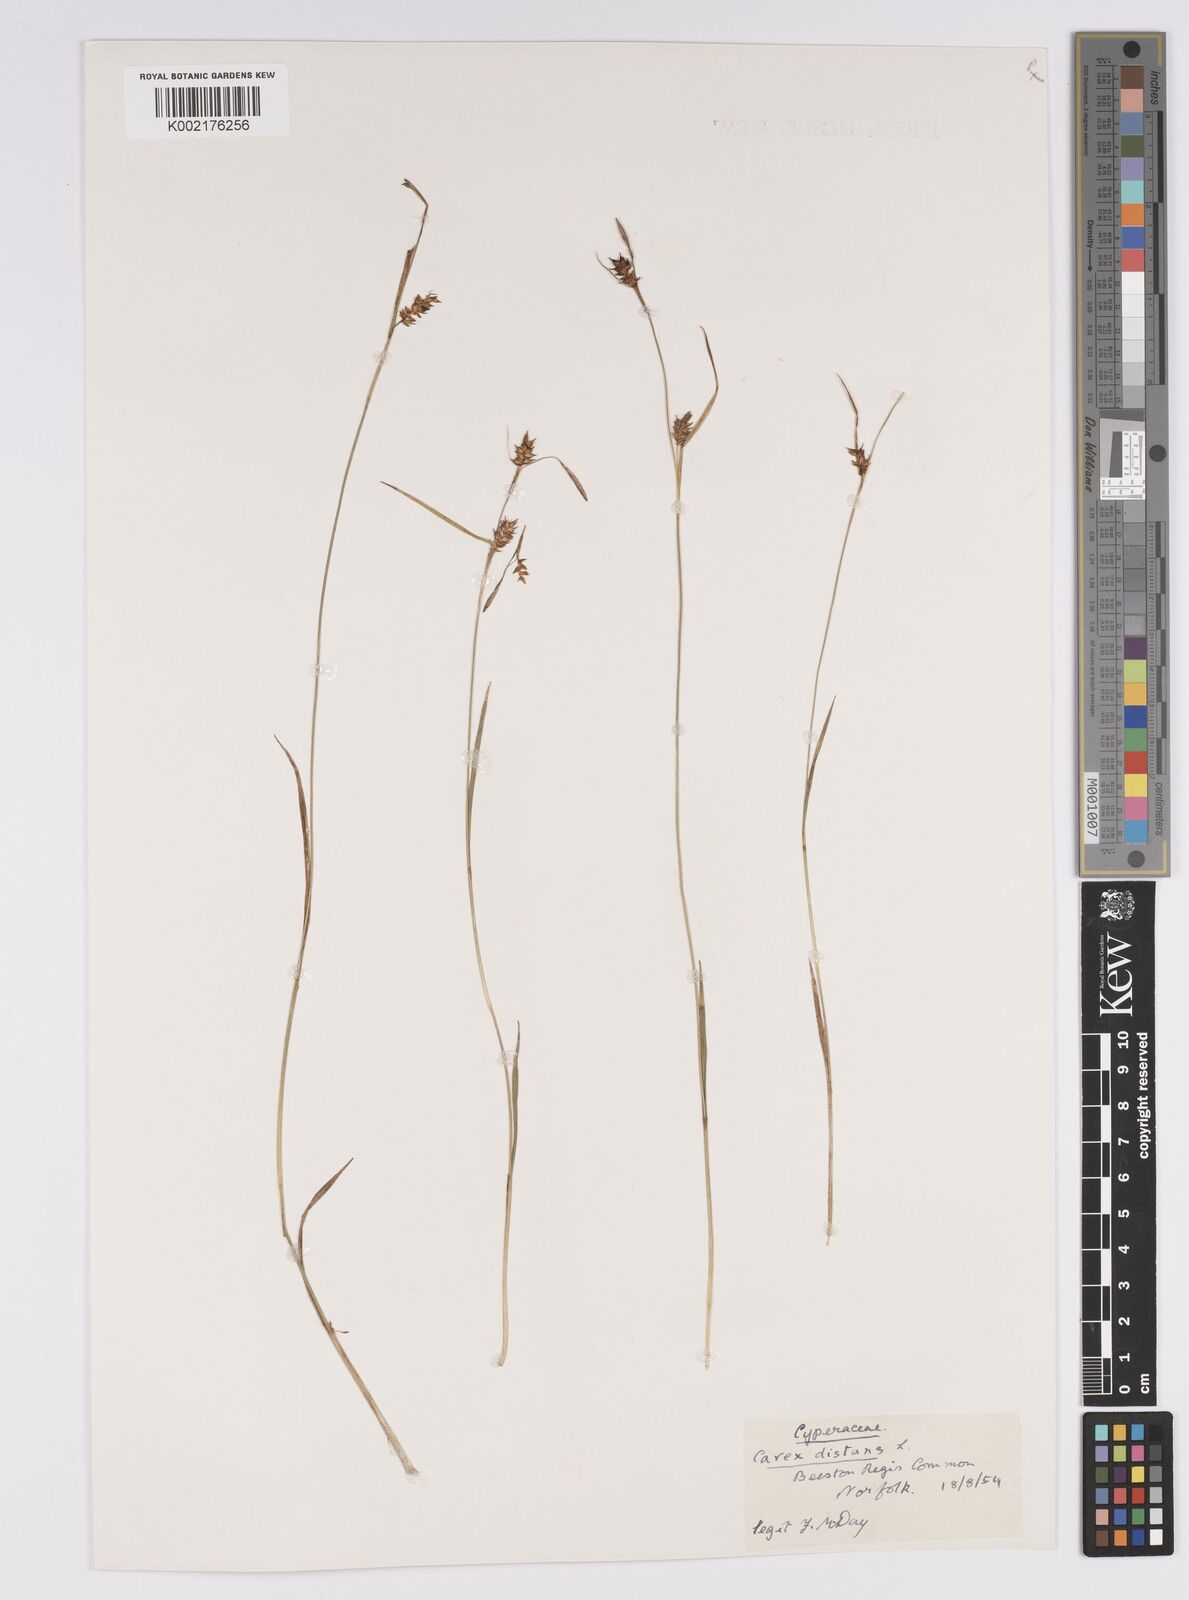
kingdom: Plantae
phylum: Tracheophyta
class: Liliopsida
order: Poales
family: Cyperaceae
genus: Carex
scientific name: Carex distans
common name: Distant sedge
